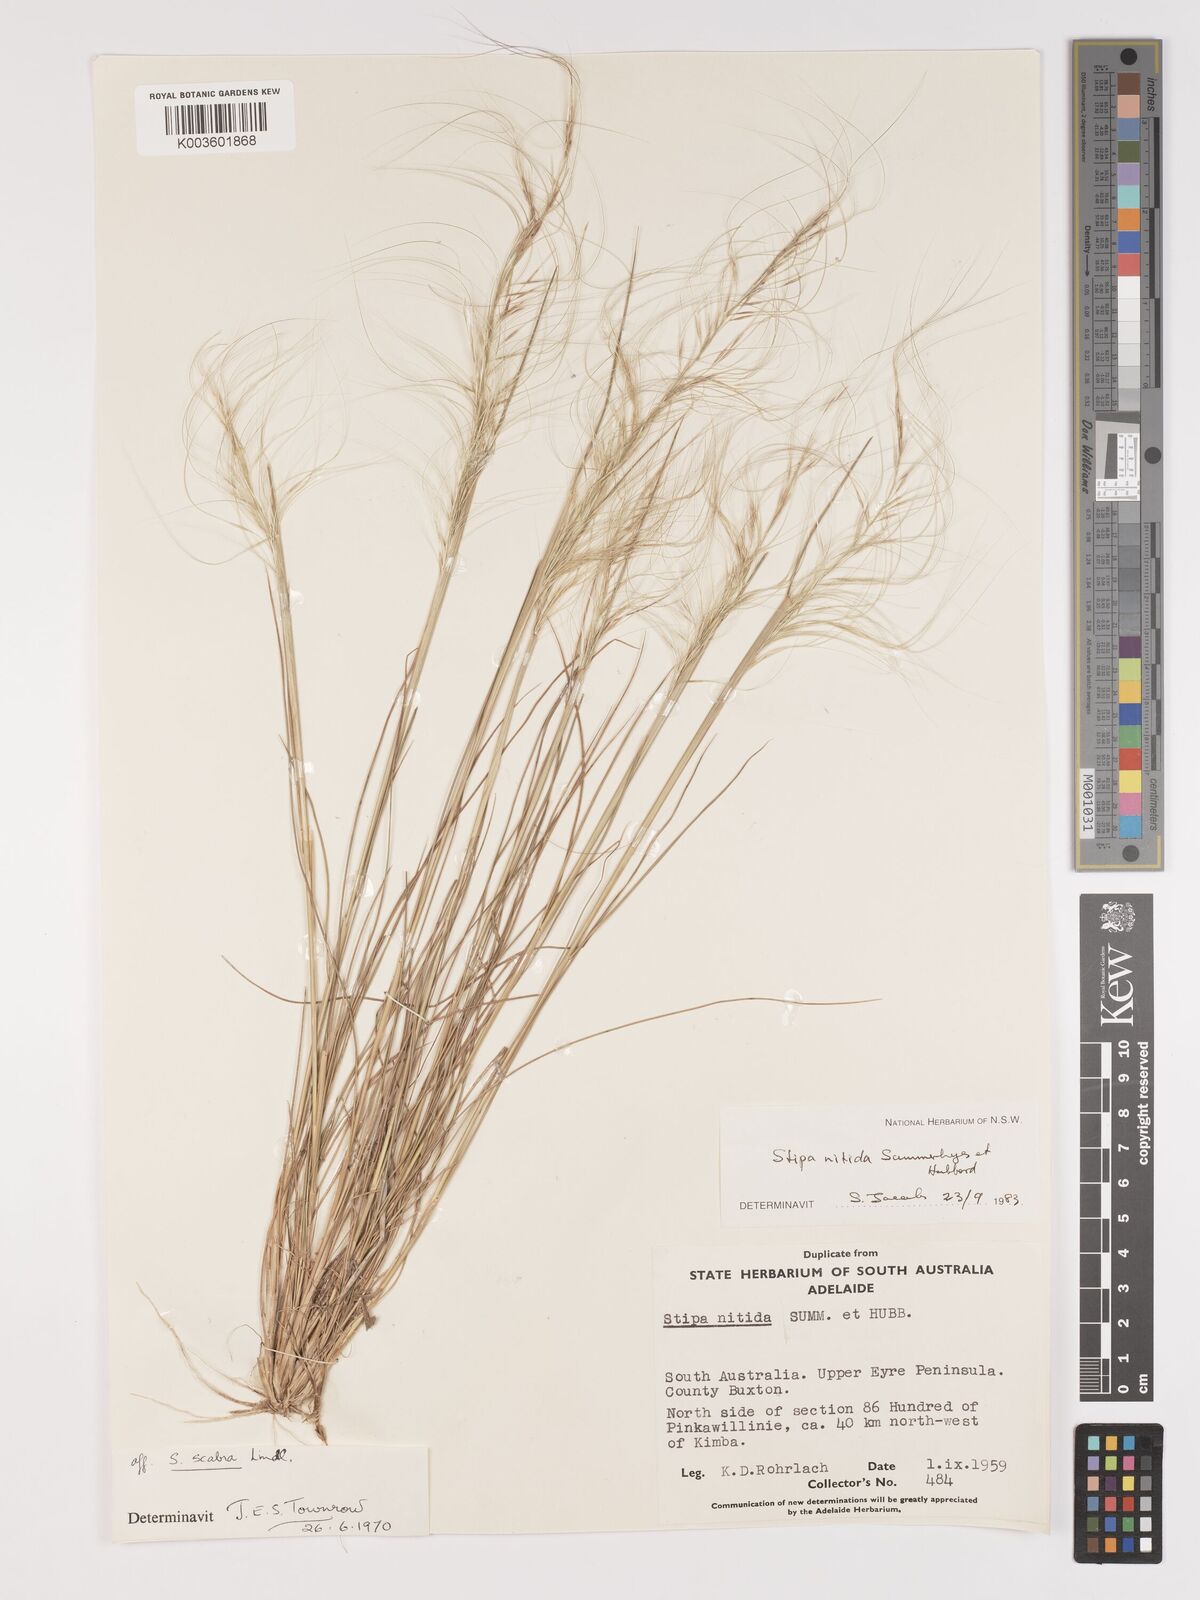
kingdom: Plantae
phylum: Tracheophyta
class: Liliopsida
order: Poales
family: Poaceae
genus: Austrostipa
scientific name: Austrostipa nitida
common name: Balcarra grass
